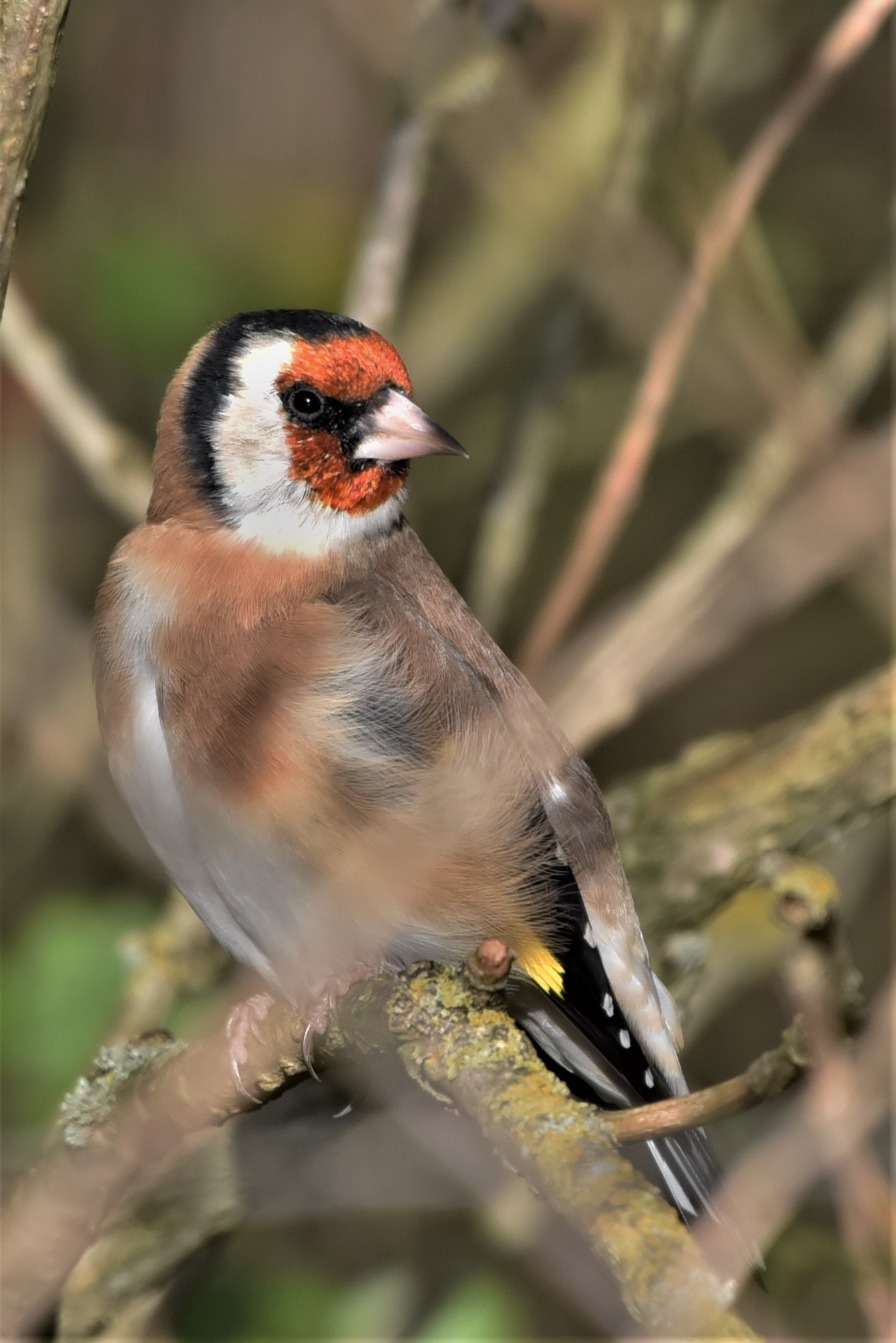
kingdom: Animalia
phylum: Chordata
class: Aves
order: Passeriformes
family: Fringillidae
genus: Carduelis
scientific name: Carduelis carduelis
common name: Stillits
